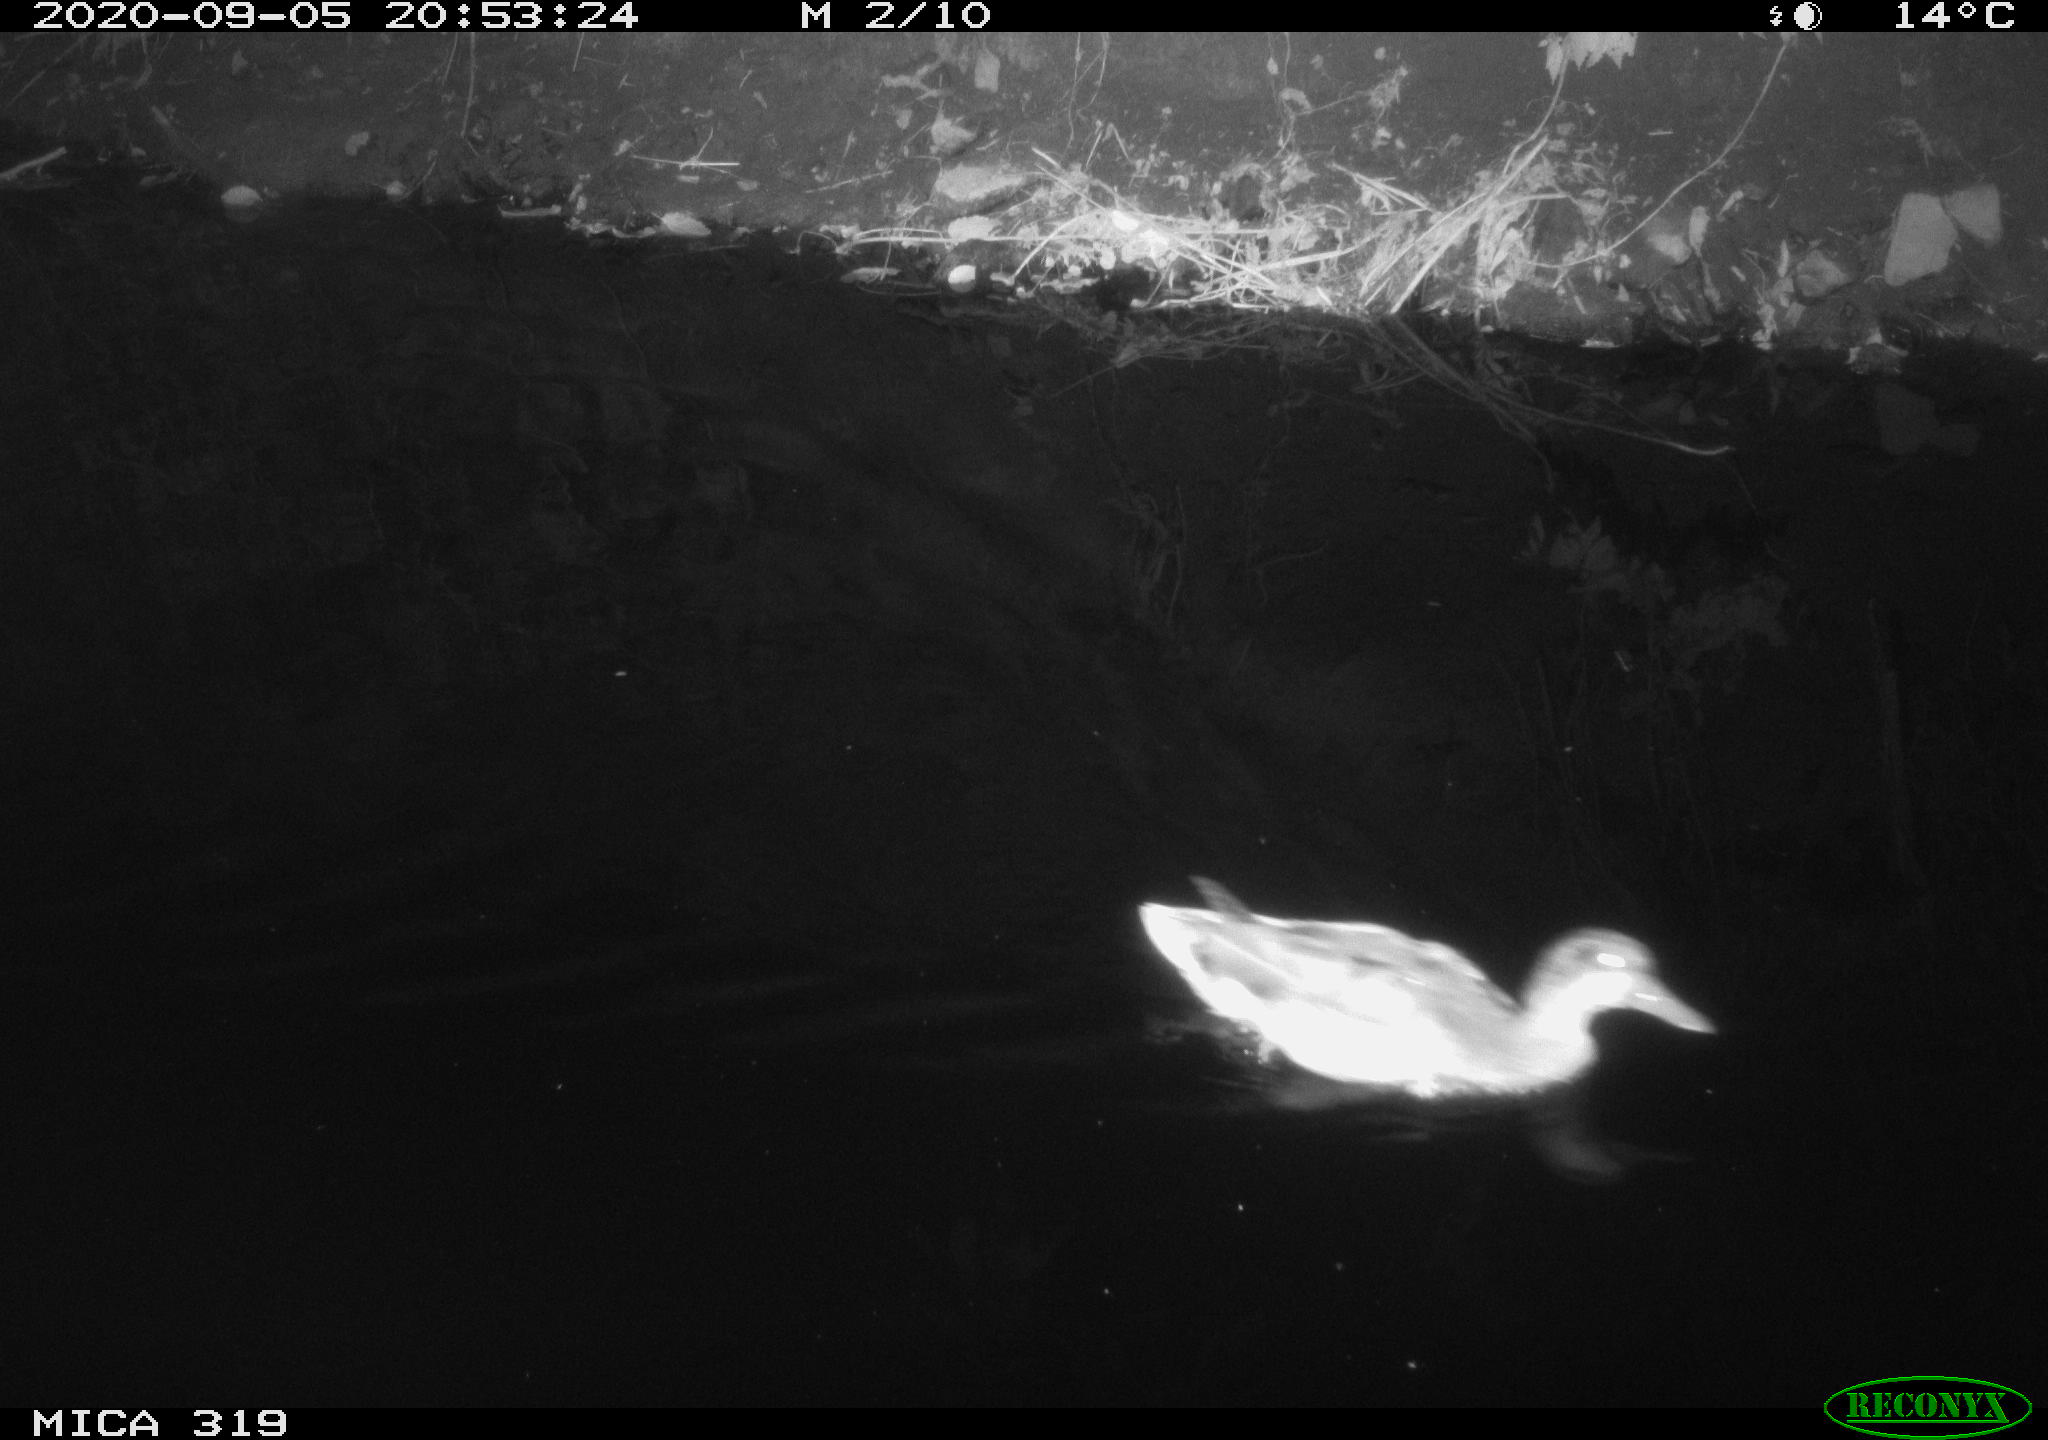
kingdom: Animalia
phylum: Chordata
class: Aves
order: Anseriformes
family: Anatidae
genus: Anas
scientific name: Anas platyrhynchos
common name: Mallard
